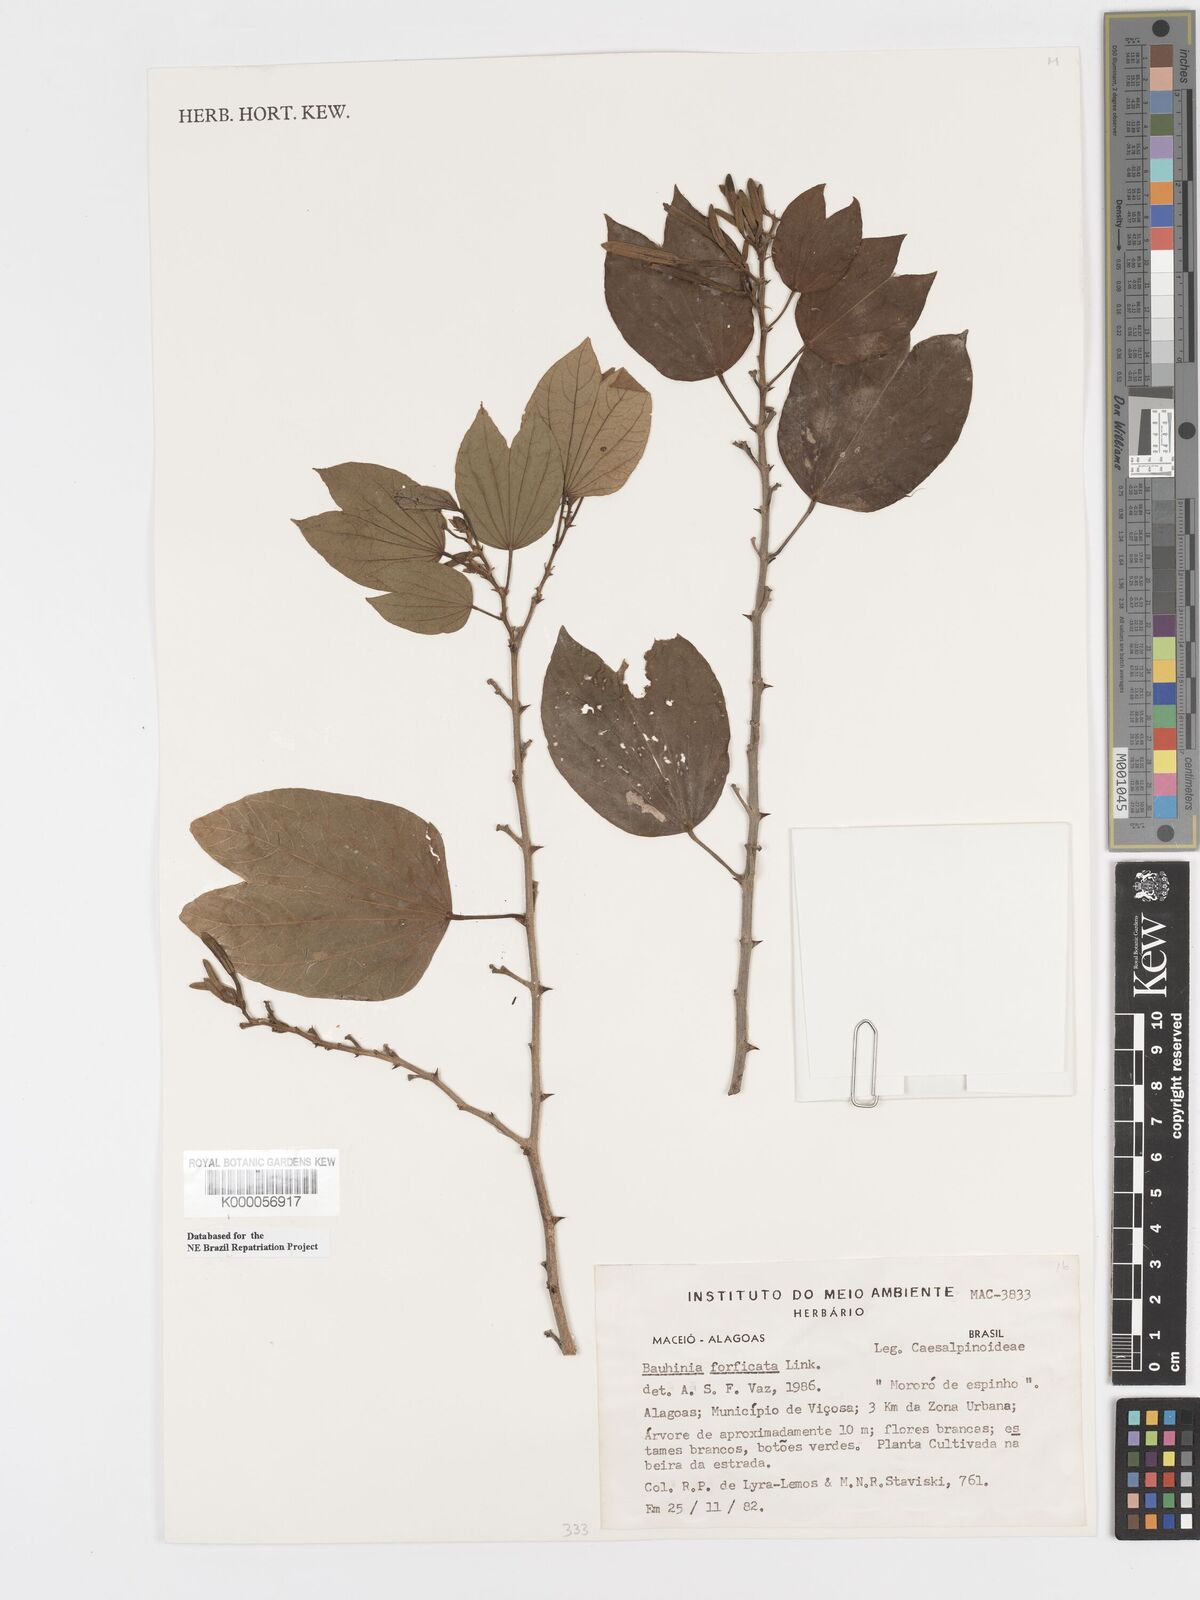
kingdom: Plantae
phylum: Tracheophyta
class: Magnoliopsida
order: Fabales
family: Fabaceae
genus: Bauhinia
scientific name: Bauhinia forficata
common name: Orchid tree
